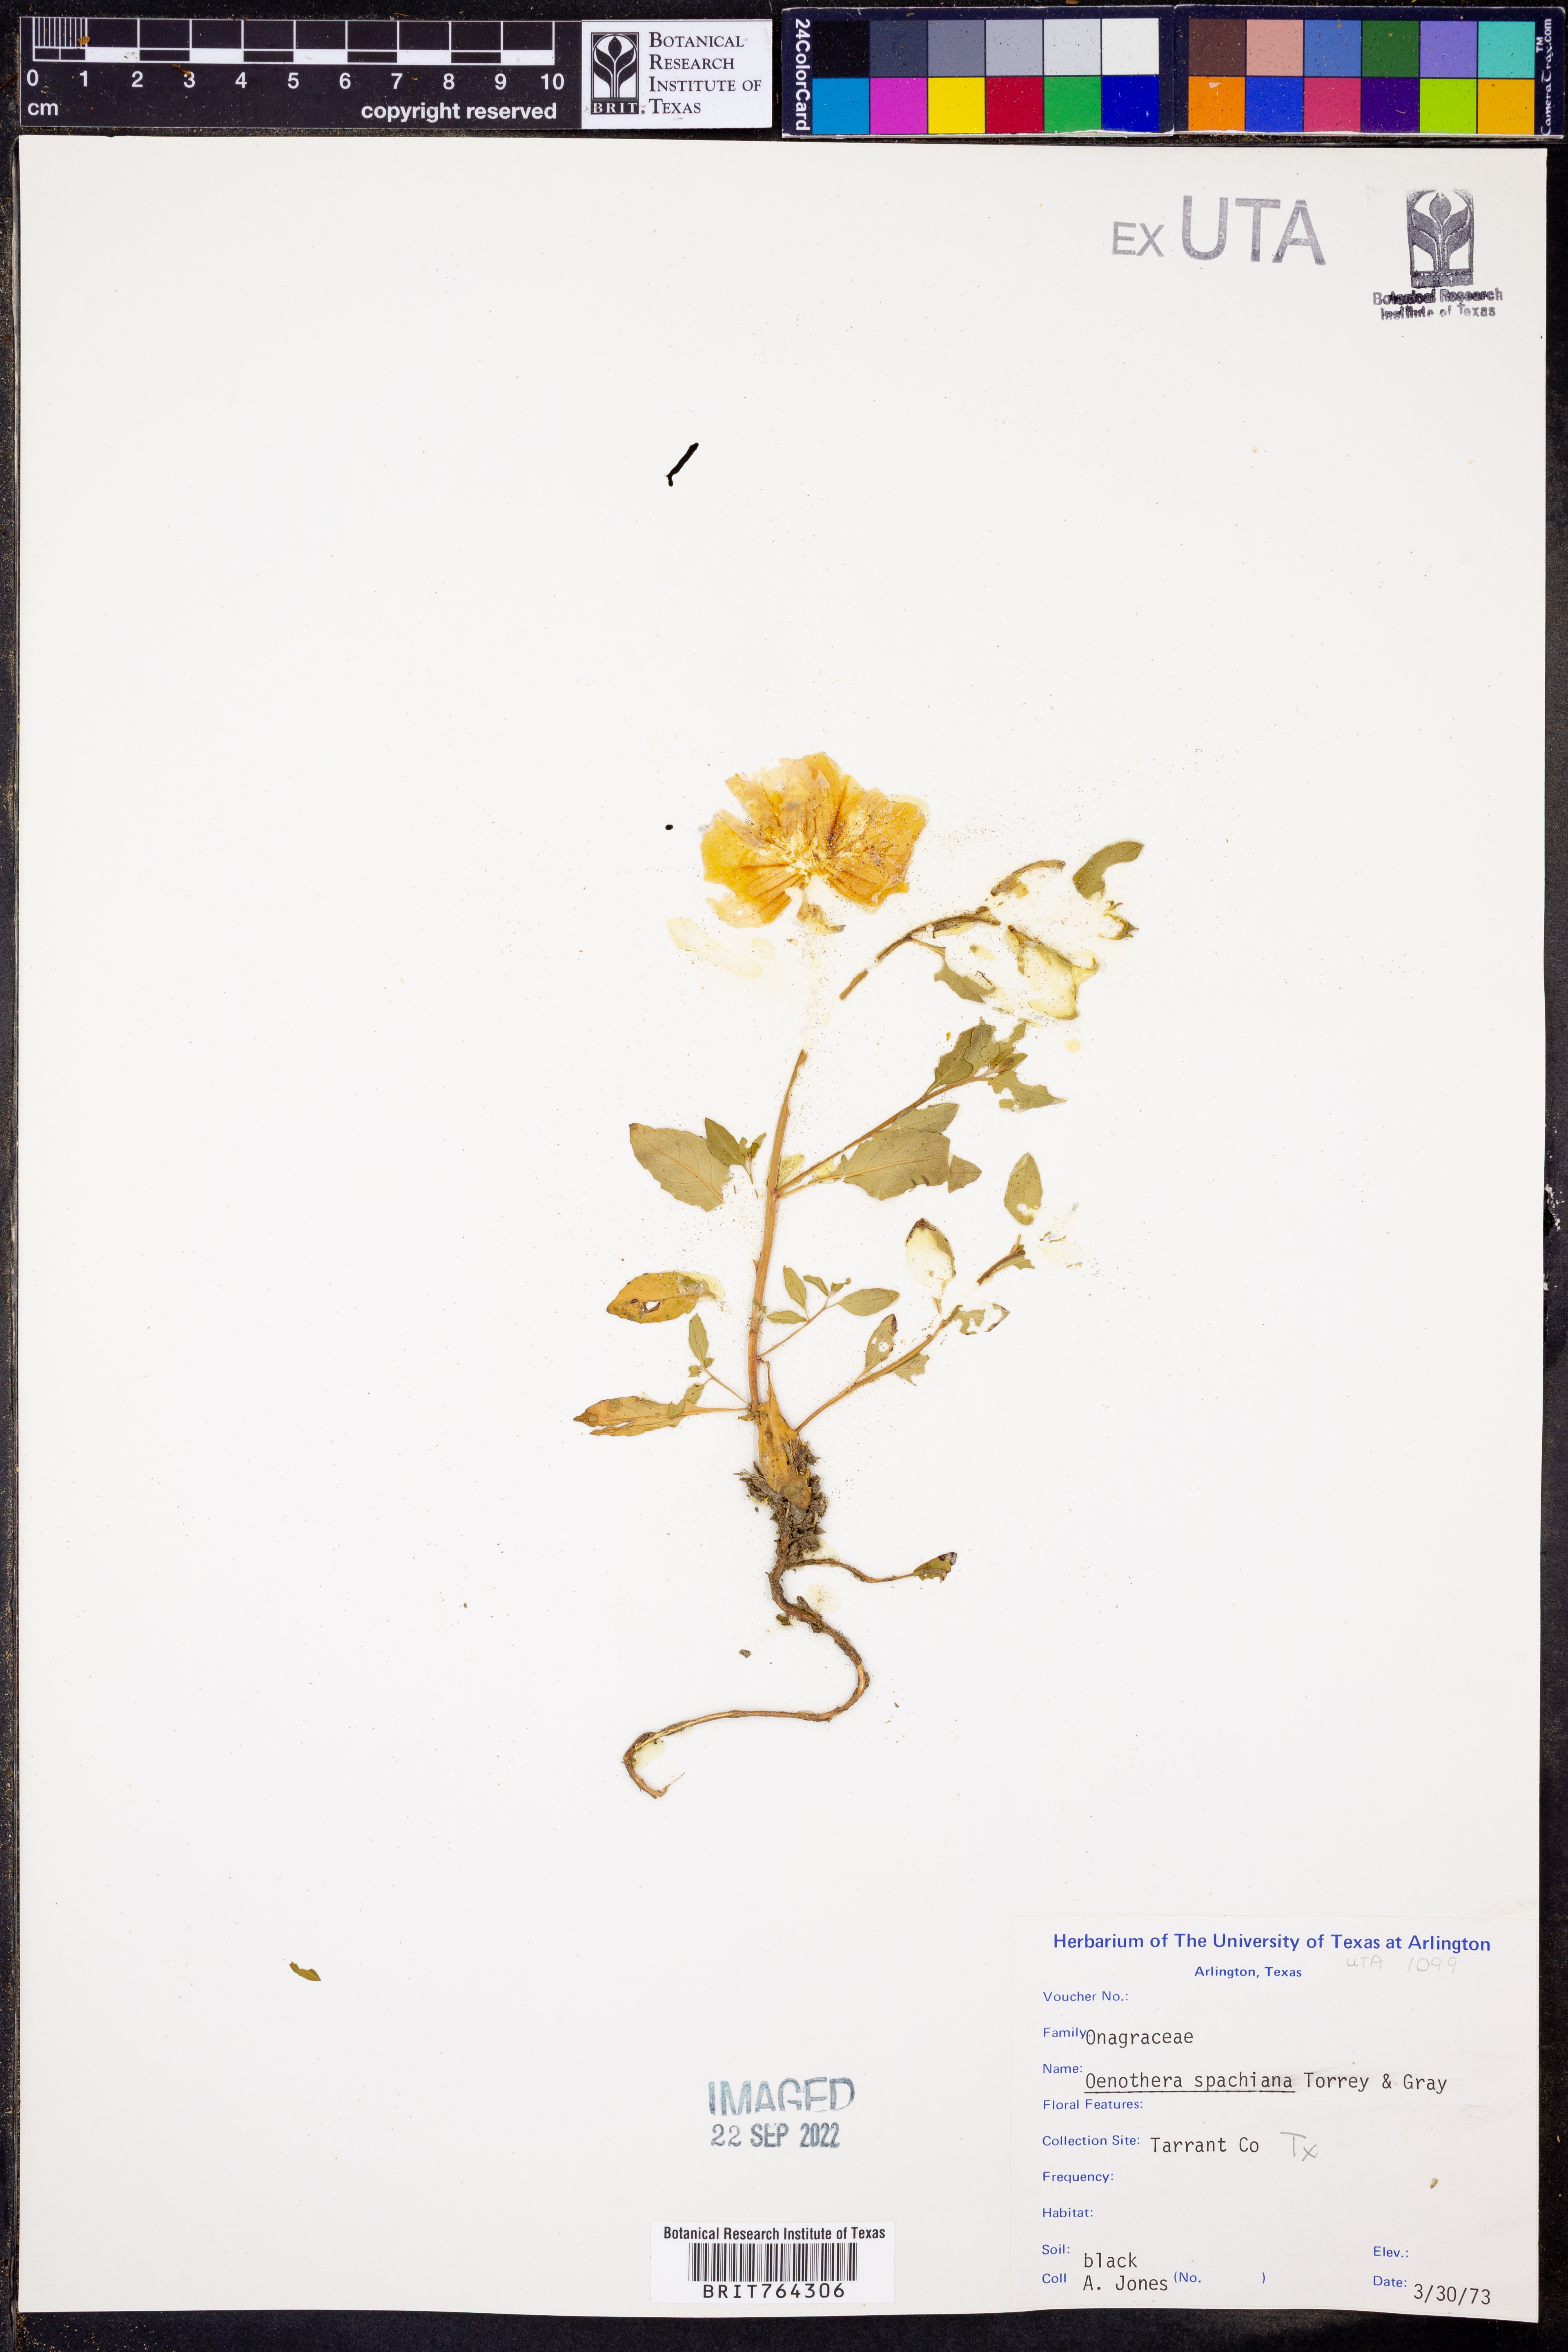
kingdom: Plantae
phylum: Tracheophyta
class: Magnoliopsida
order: Myrtales
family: Onagraceae
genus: Oenothera
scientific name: Oenothera spachiana
